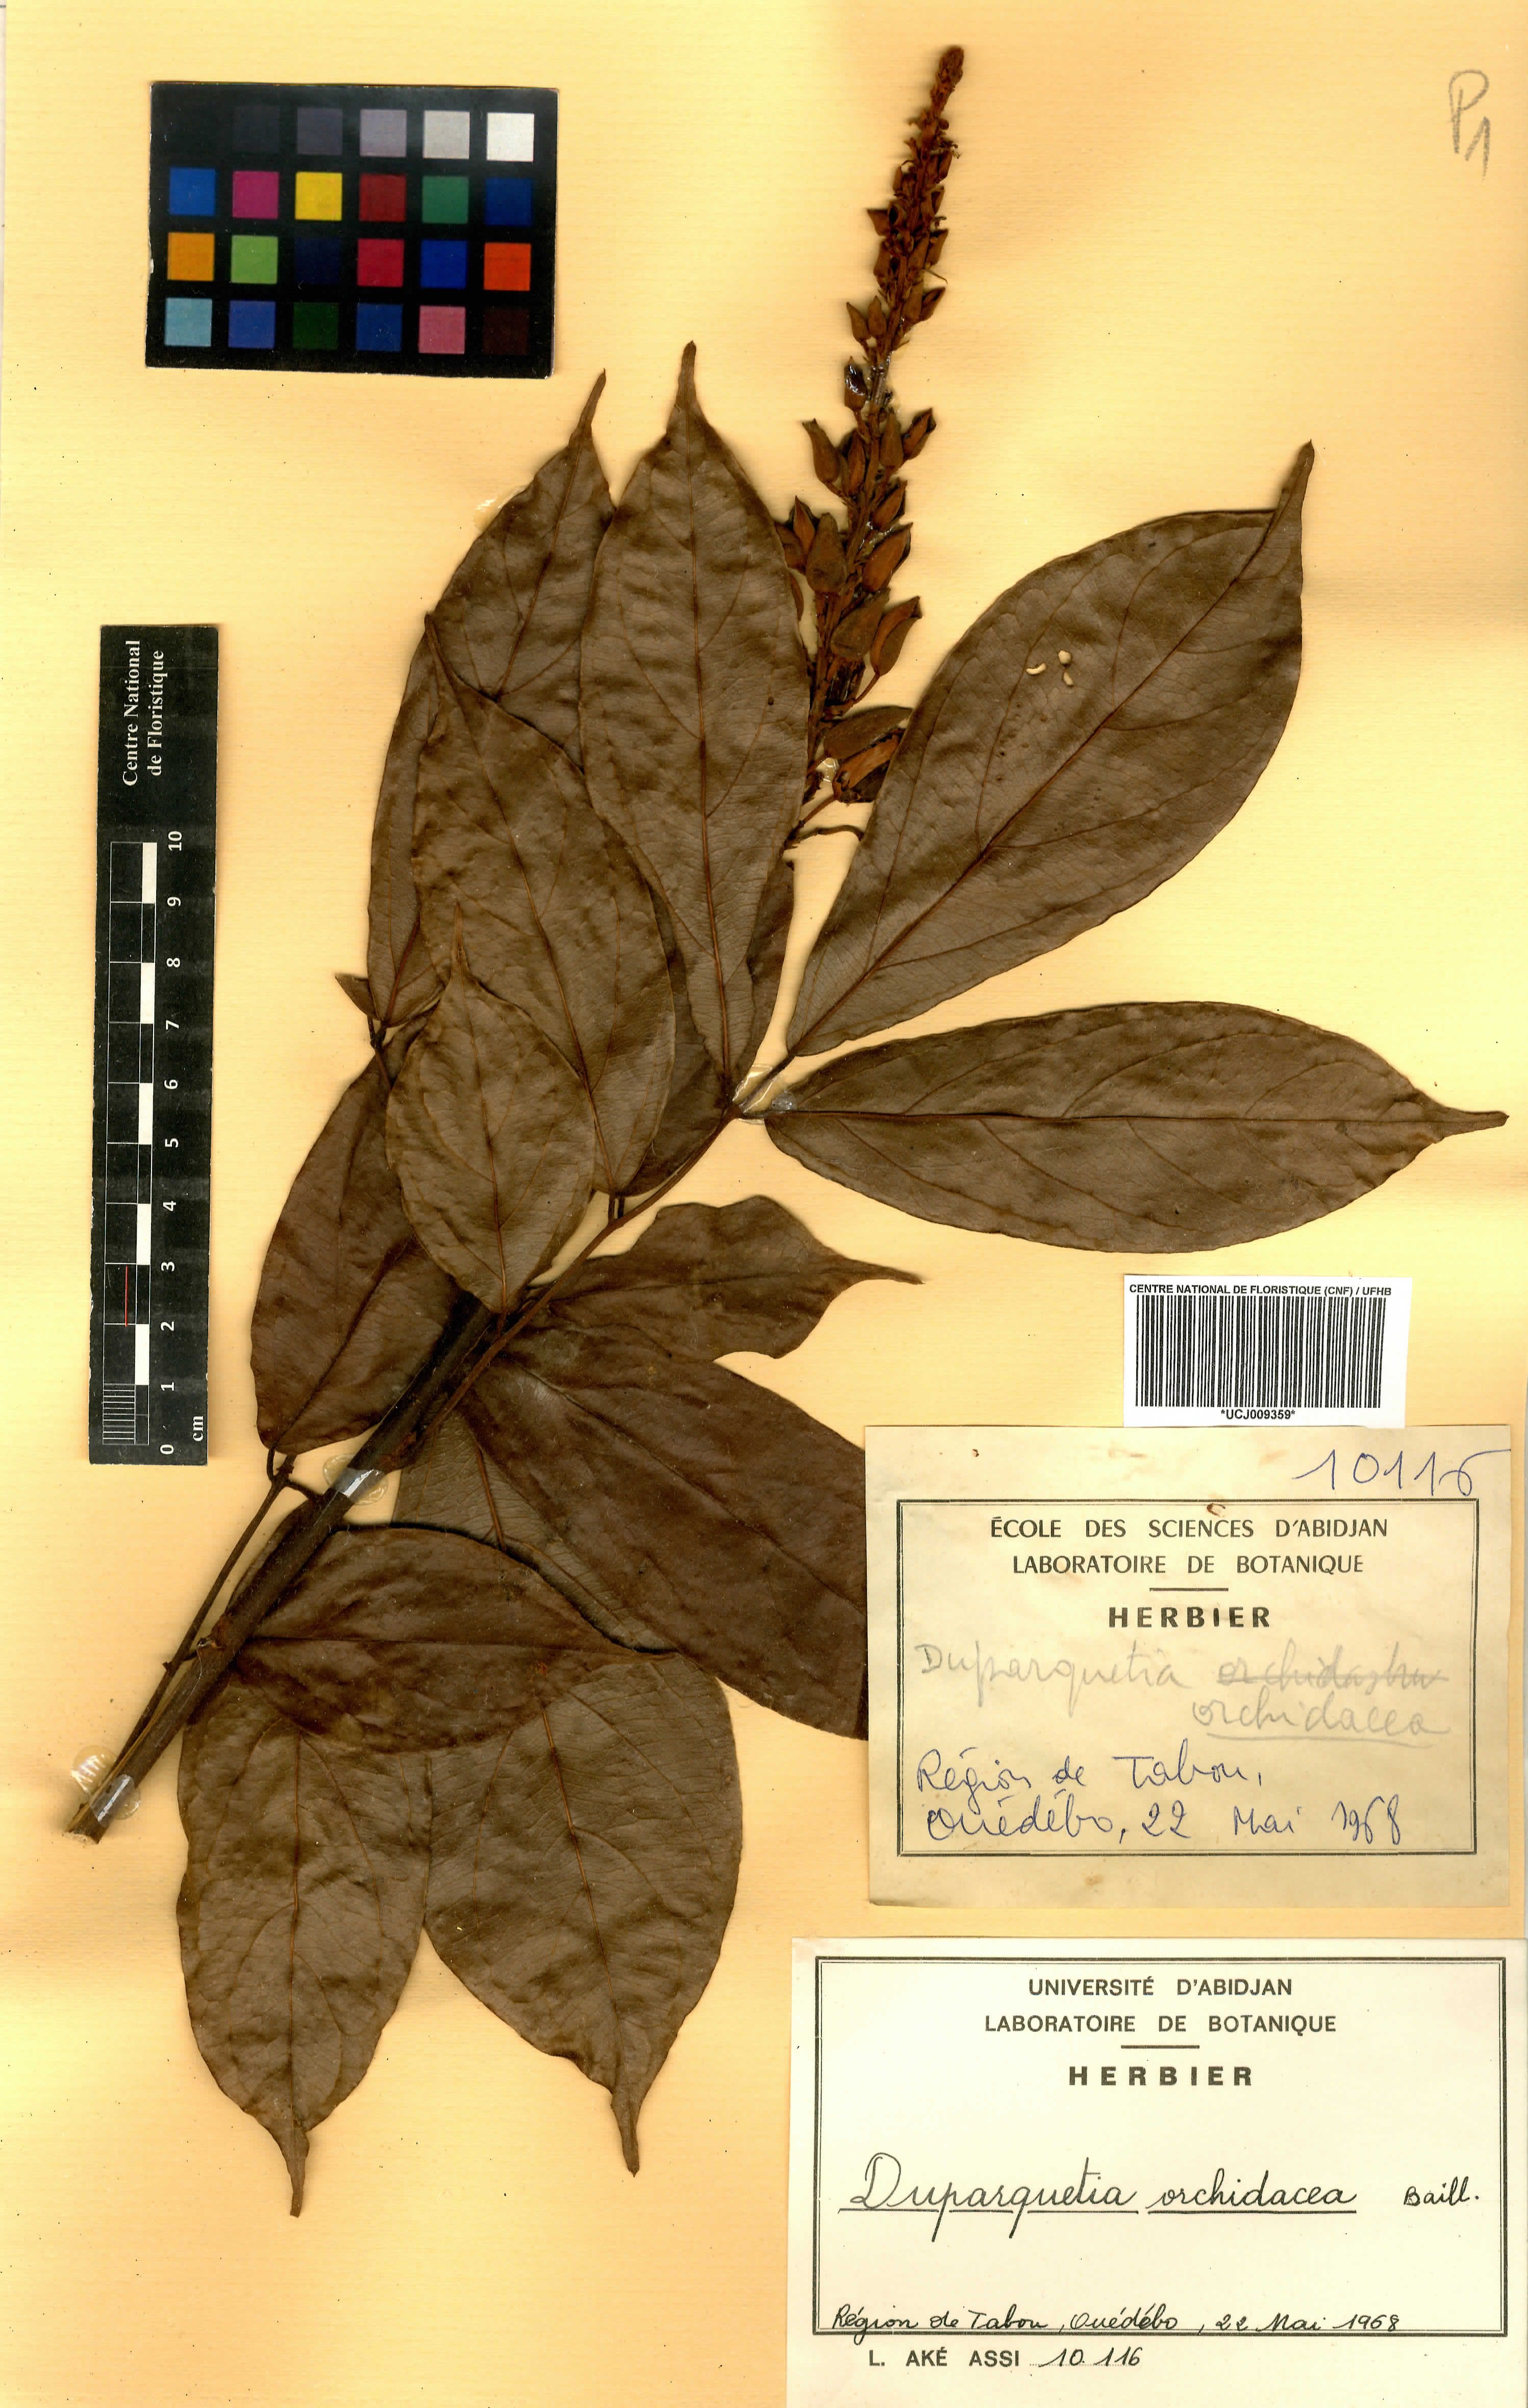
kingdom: Plantae
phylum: Tracheophyta
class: Magnoliopsida
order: Fabales
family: Fabaceae
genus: Duparquetia
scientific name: Duparquetia orchidacea
